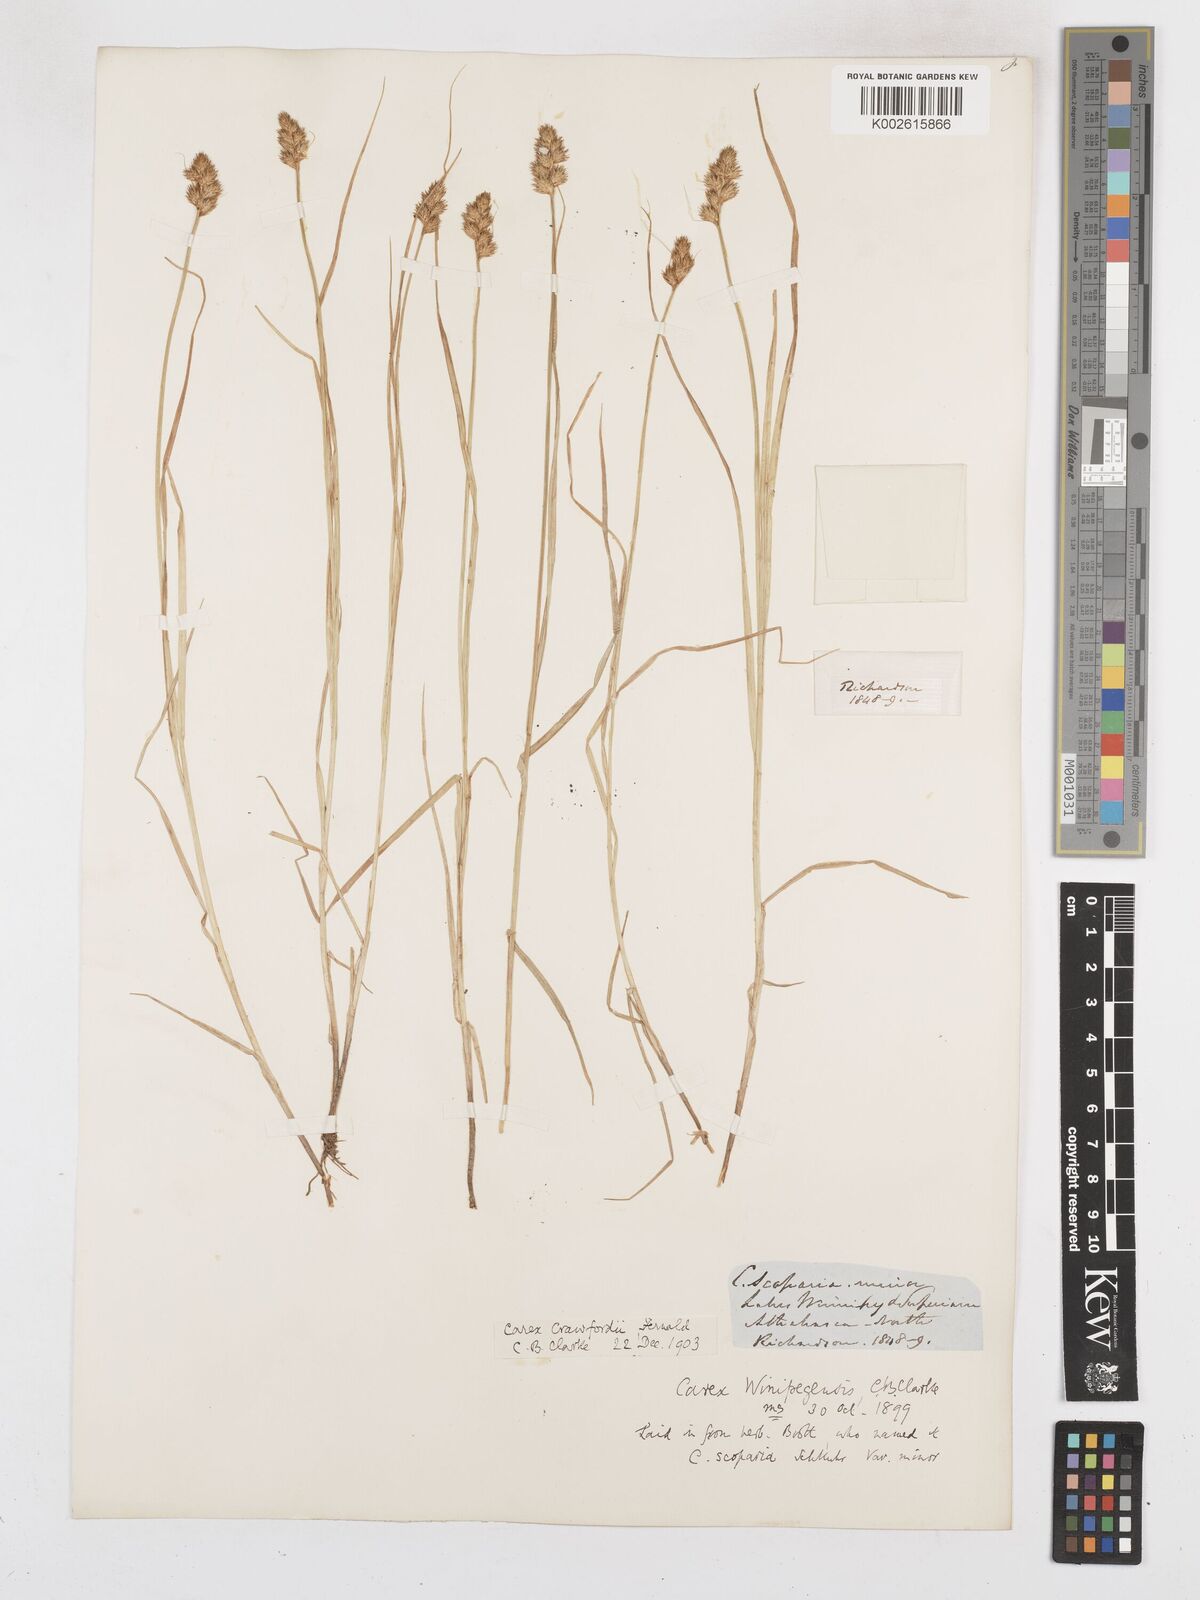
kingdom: Plantae
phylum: Tracheophyta
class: Liliopsida
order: Poales
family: Cyperaceae
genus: Carex
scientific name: Carex crawfordii
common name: Crawford's sedge
